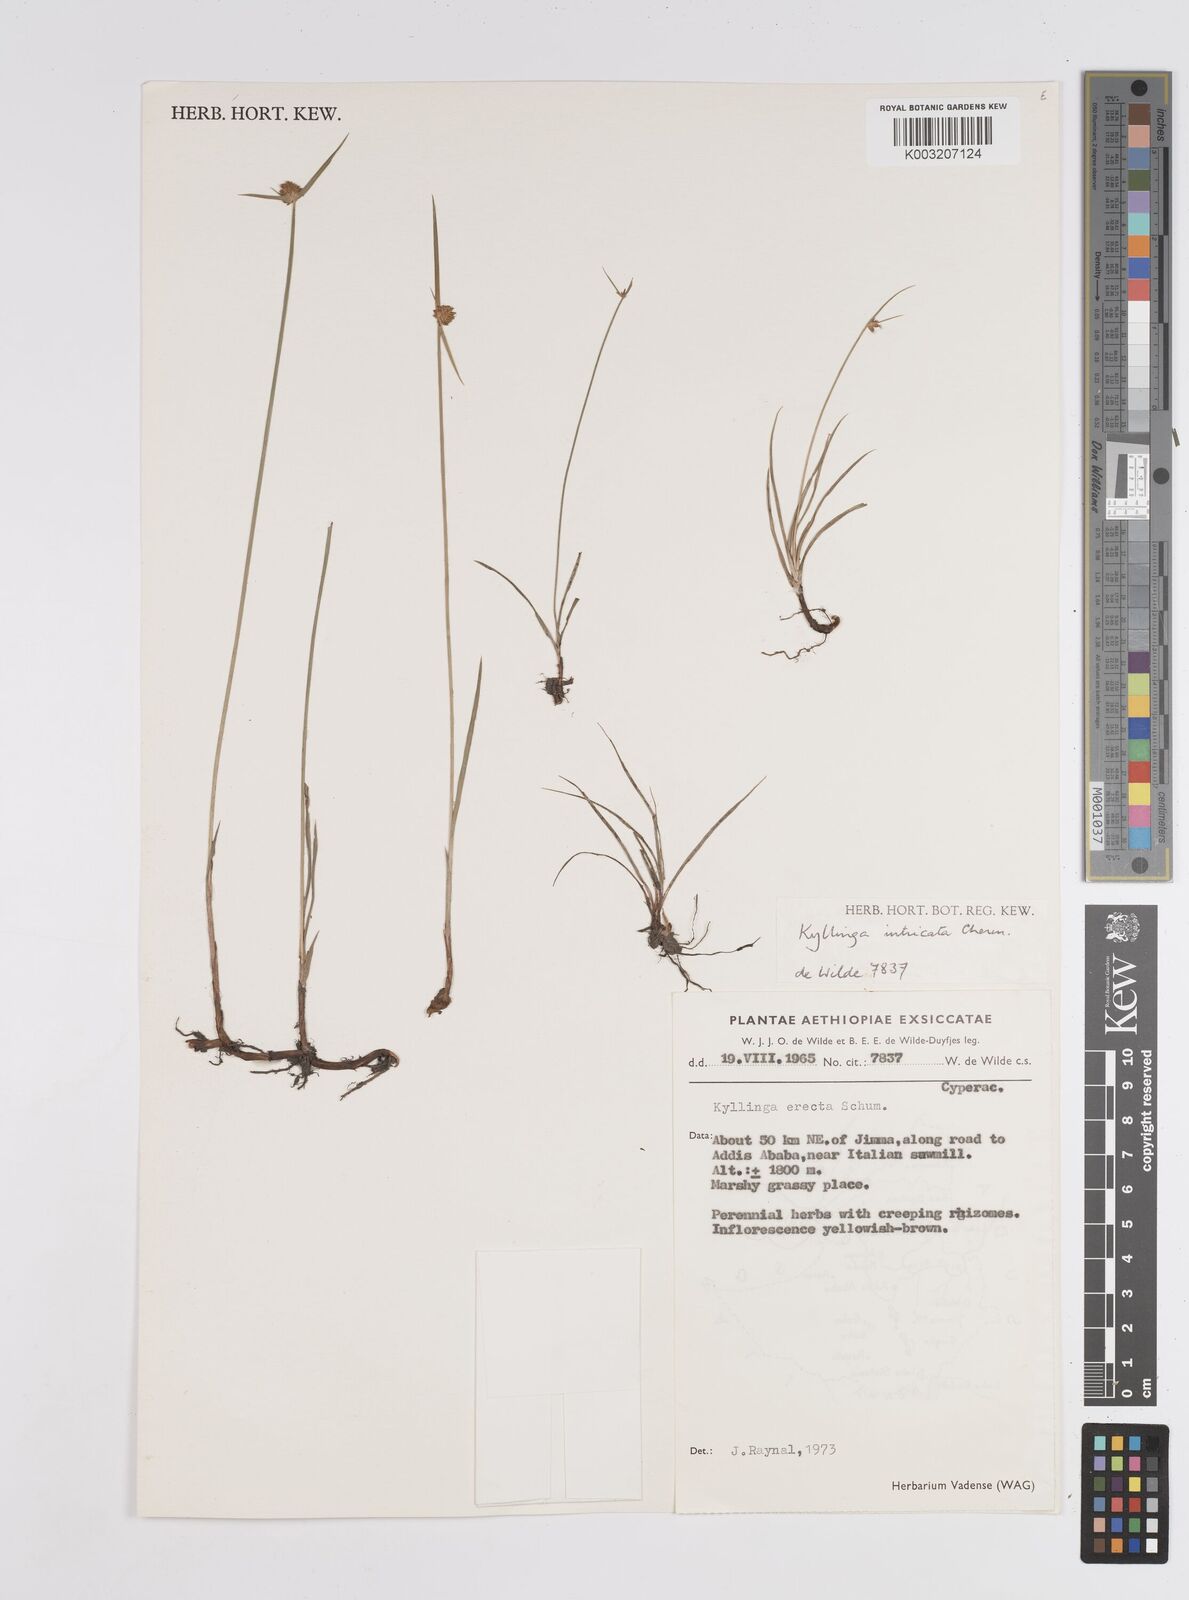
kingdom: Plantae
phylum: Tracheophyta
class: Liliopsida
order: Poales
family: Cyperaceae
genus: Cyperus
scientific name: Cyperus
